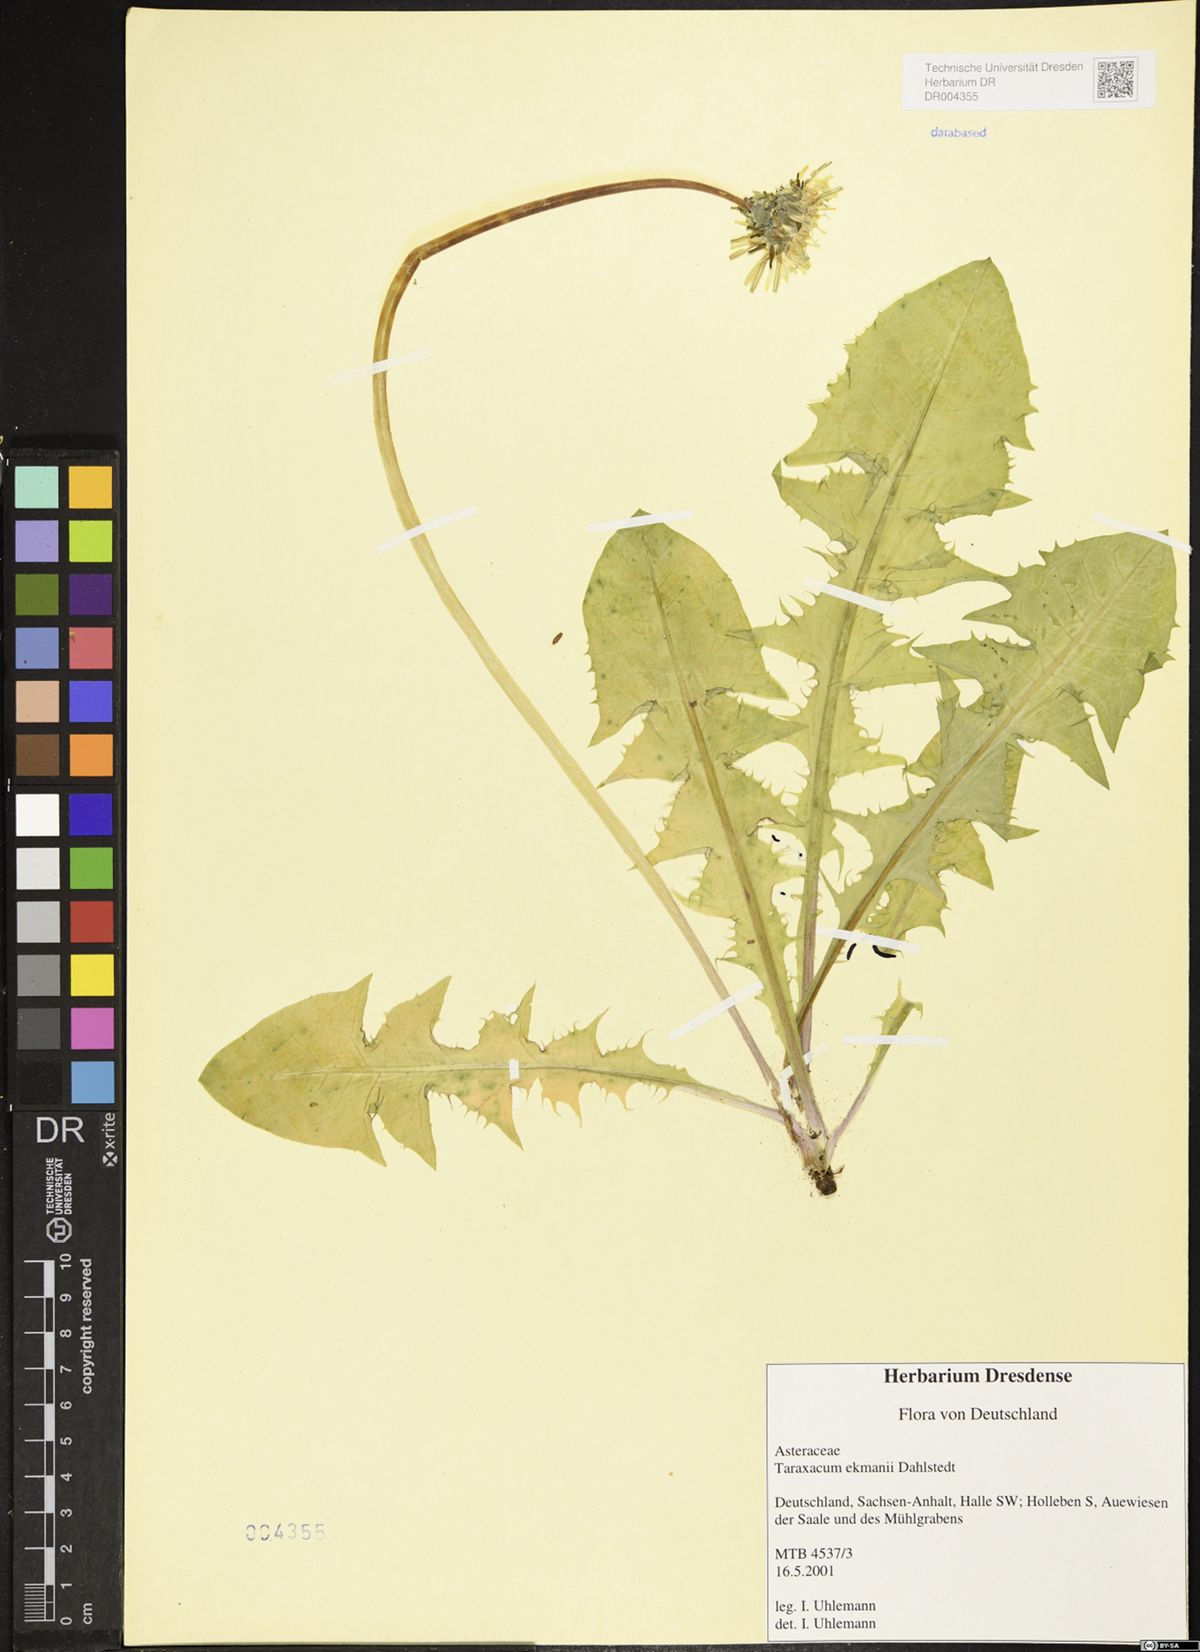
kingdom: Plantae
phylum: Tracheophyta
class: Magnoliopsida
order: Asterales
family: Asteraceae
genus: Taraxacum
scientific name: Taraxacum ekmanii
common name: Ekman's dandelion
